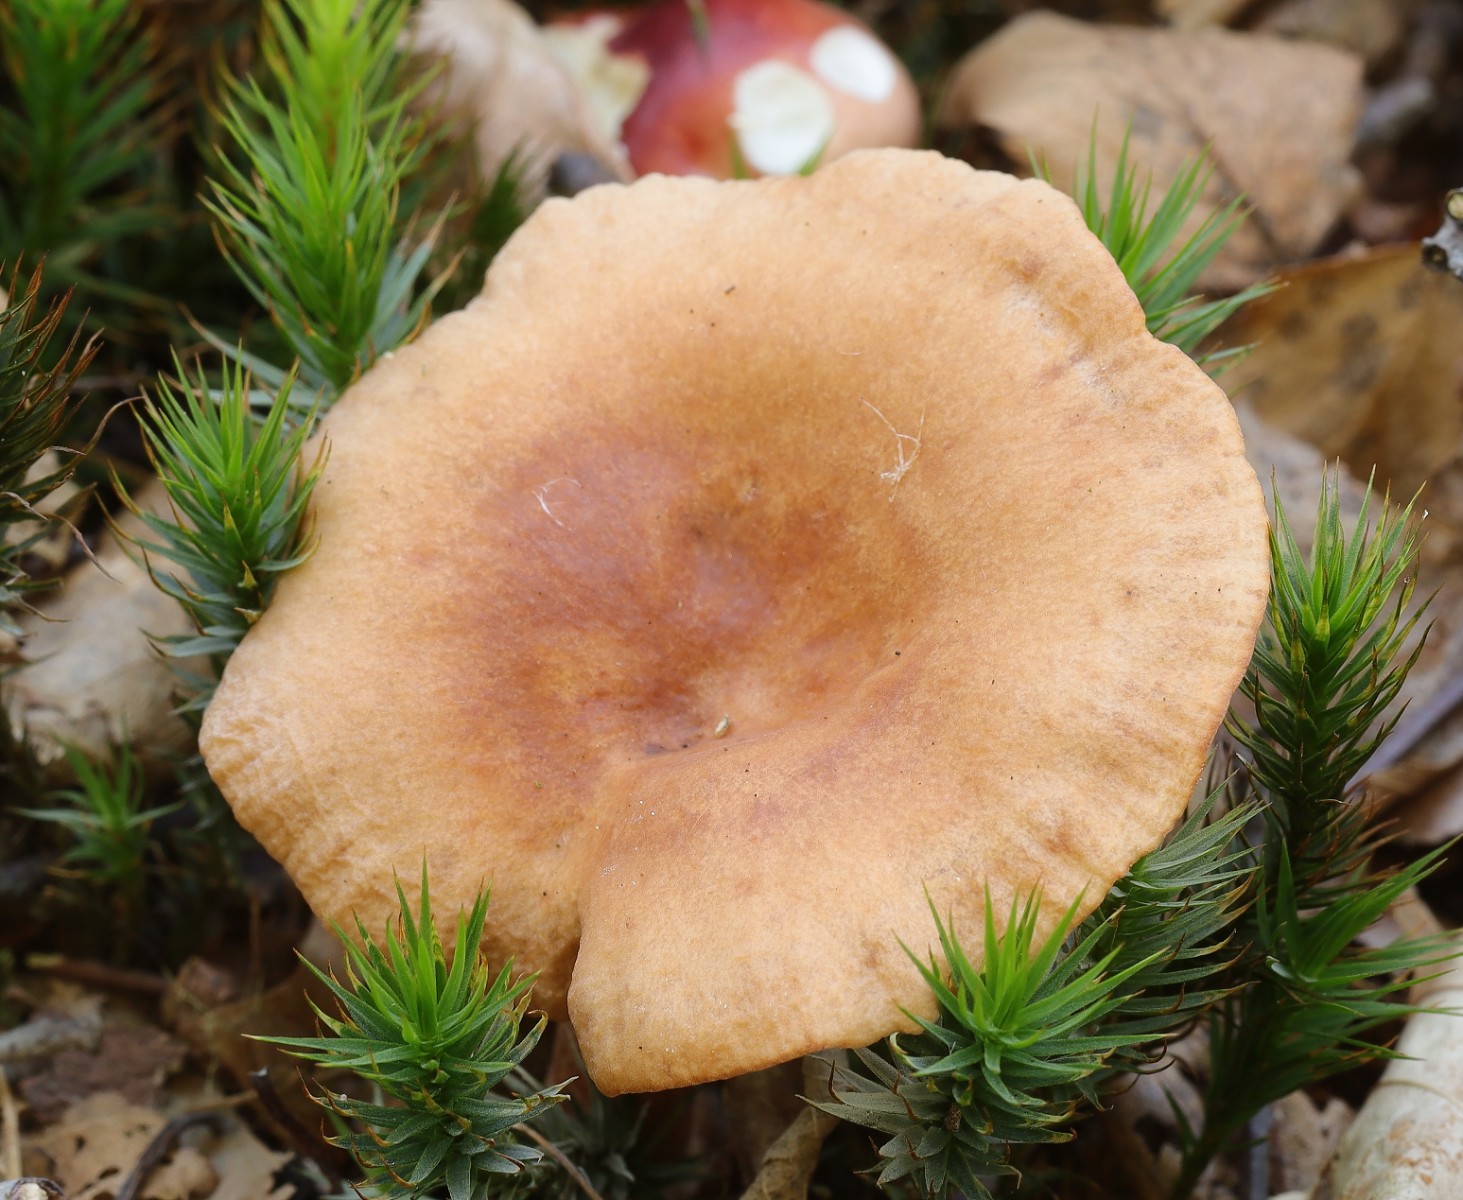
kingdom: Fungi
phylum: Basidiomycota
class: Agaricomycetes
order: Russulales
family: Russulaceae
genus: Lactarius
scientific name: Lactarius
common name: mælkehat
